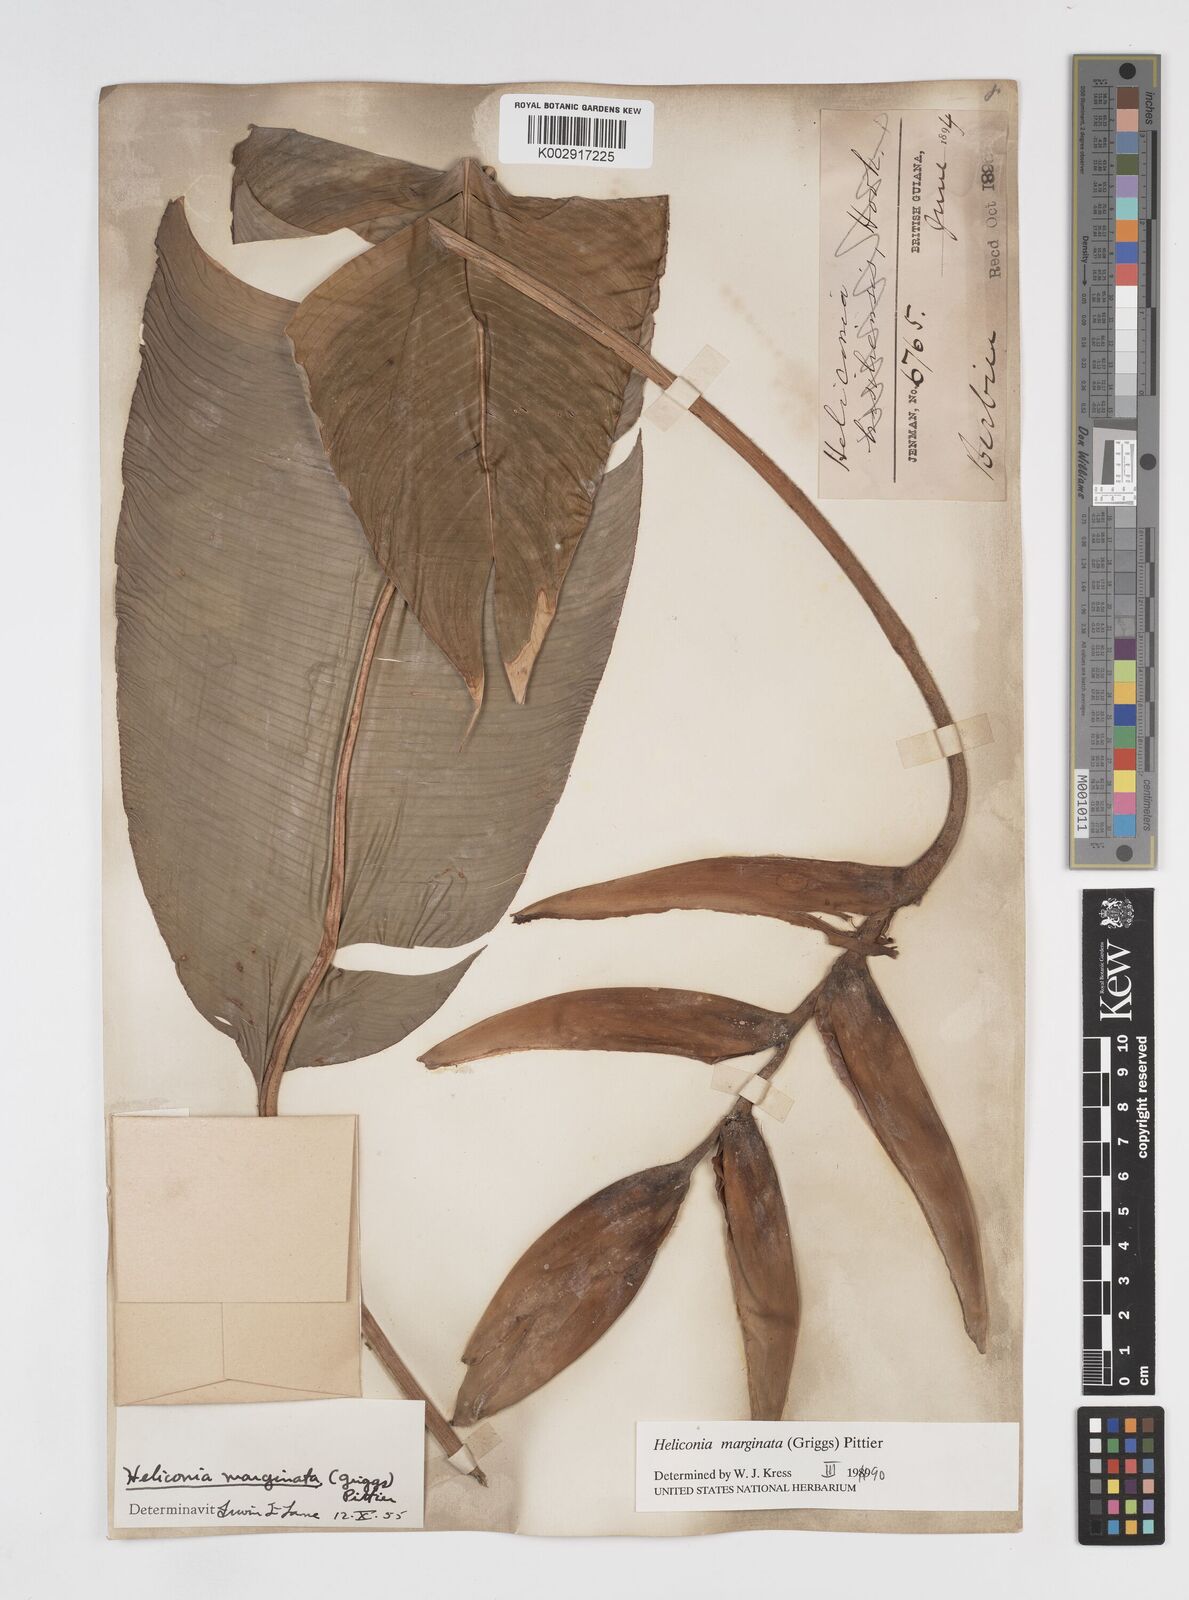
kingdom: Plantae
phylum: Tracheophyta
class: Liliopsida
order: Zingiberales
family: Heliconiaceae
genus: Heliconia
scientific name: Heliconia marginata
